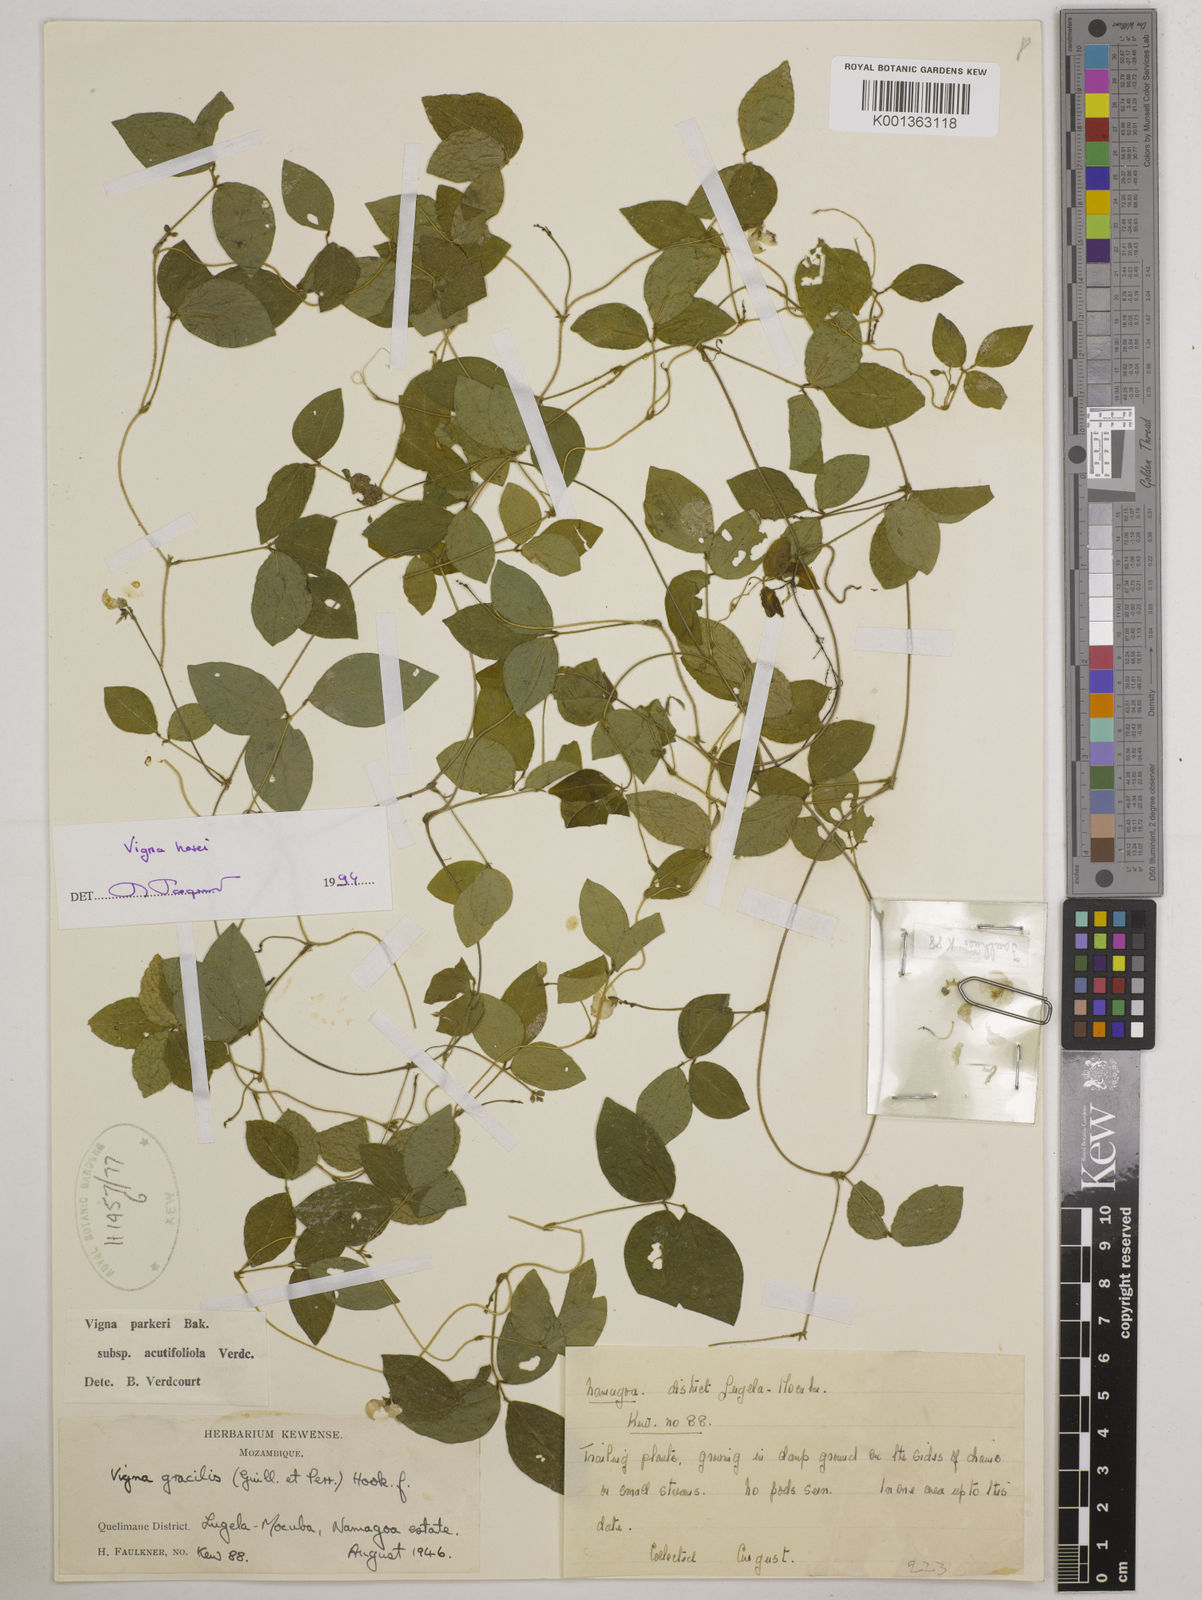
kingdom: Plantae
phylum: Tracheophyta
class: Magnoliopsida
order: Fabales
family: Fabaceae
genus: Vigna
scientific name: Vigna hosei
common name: Sarawak-bean
